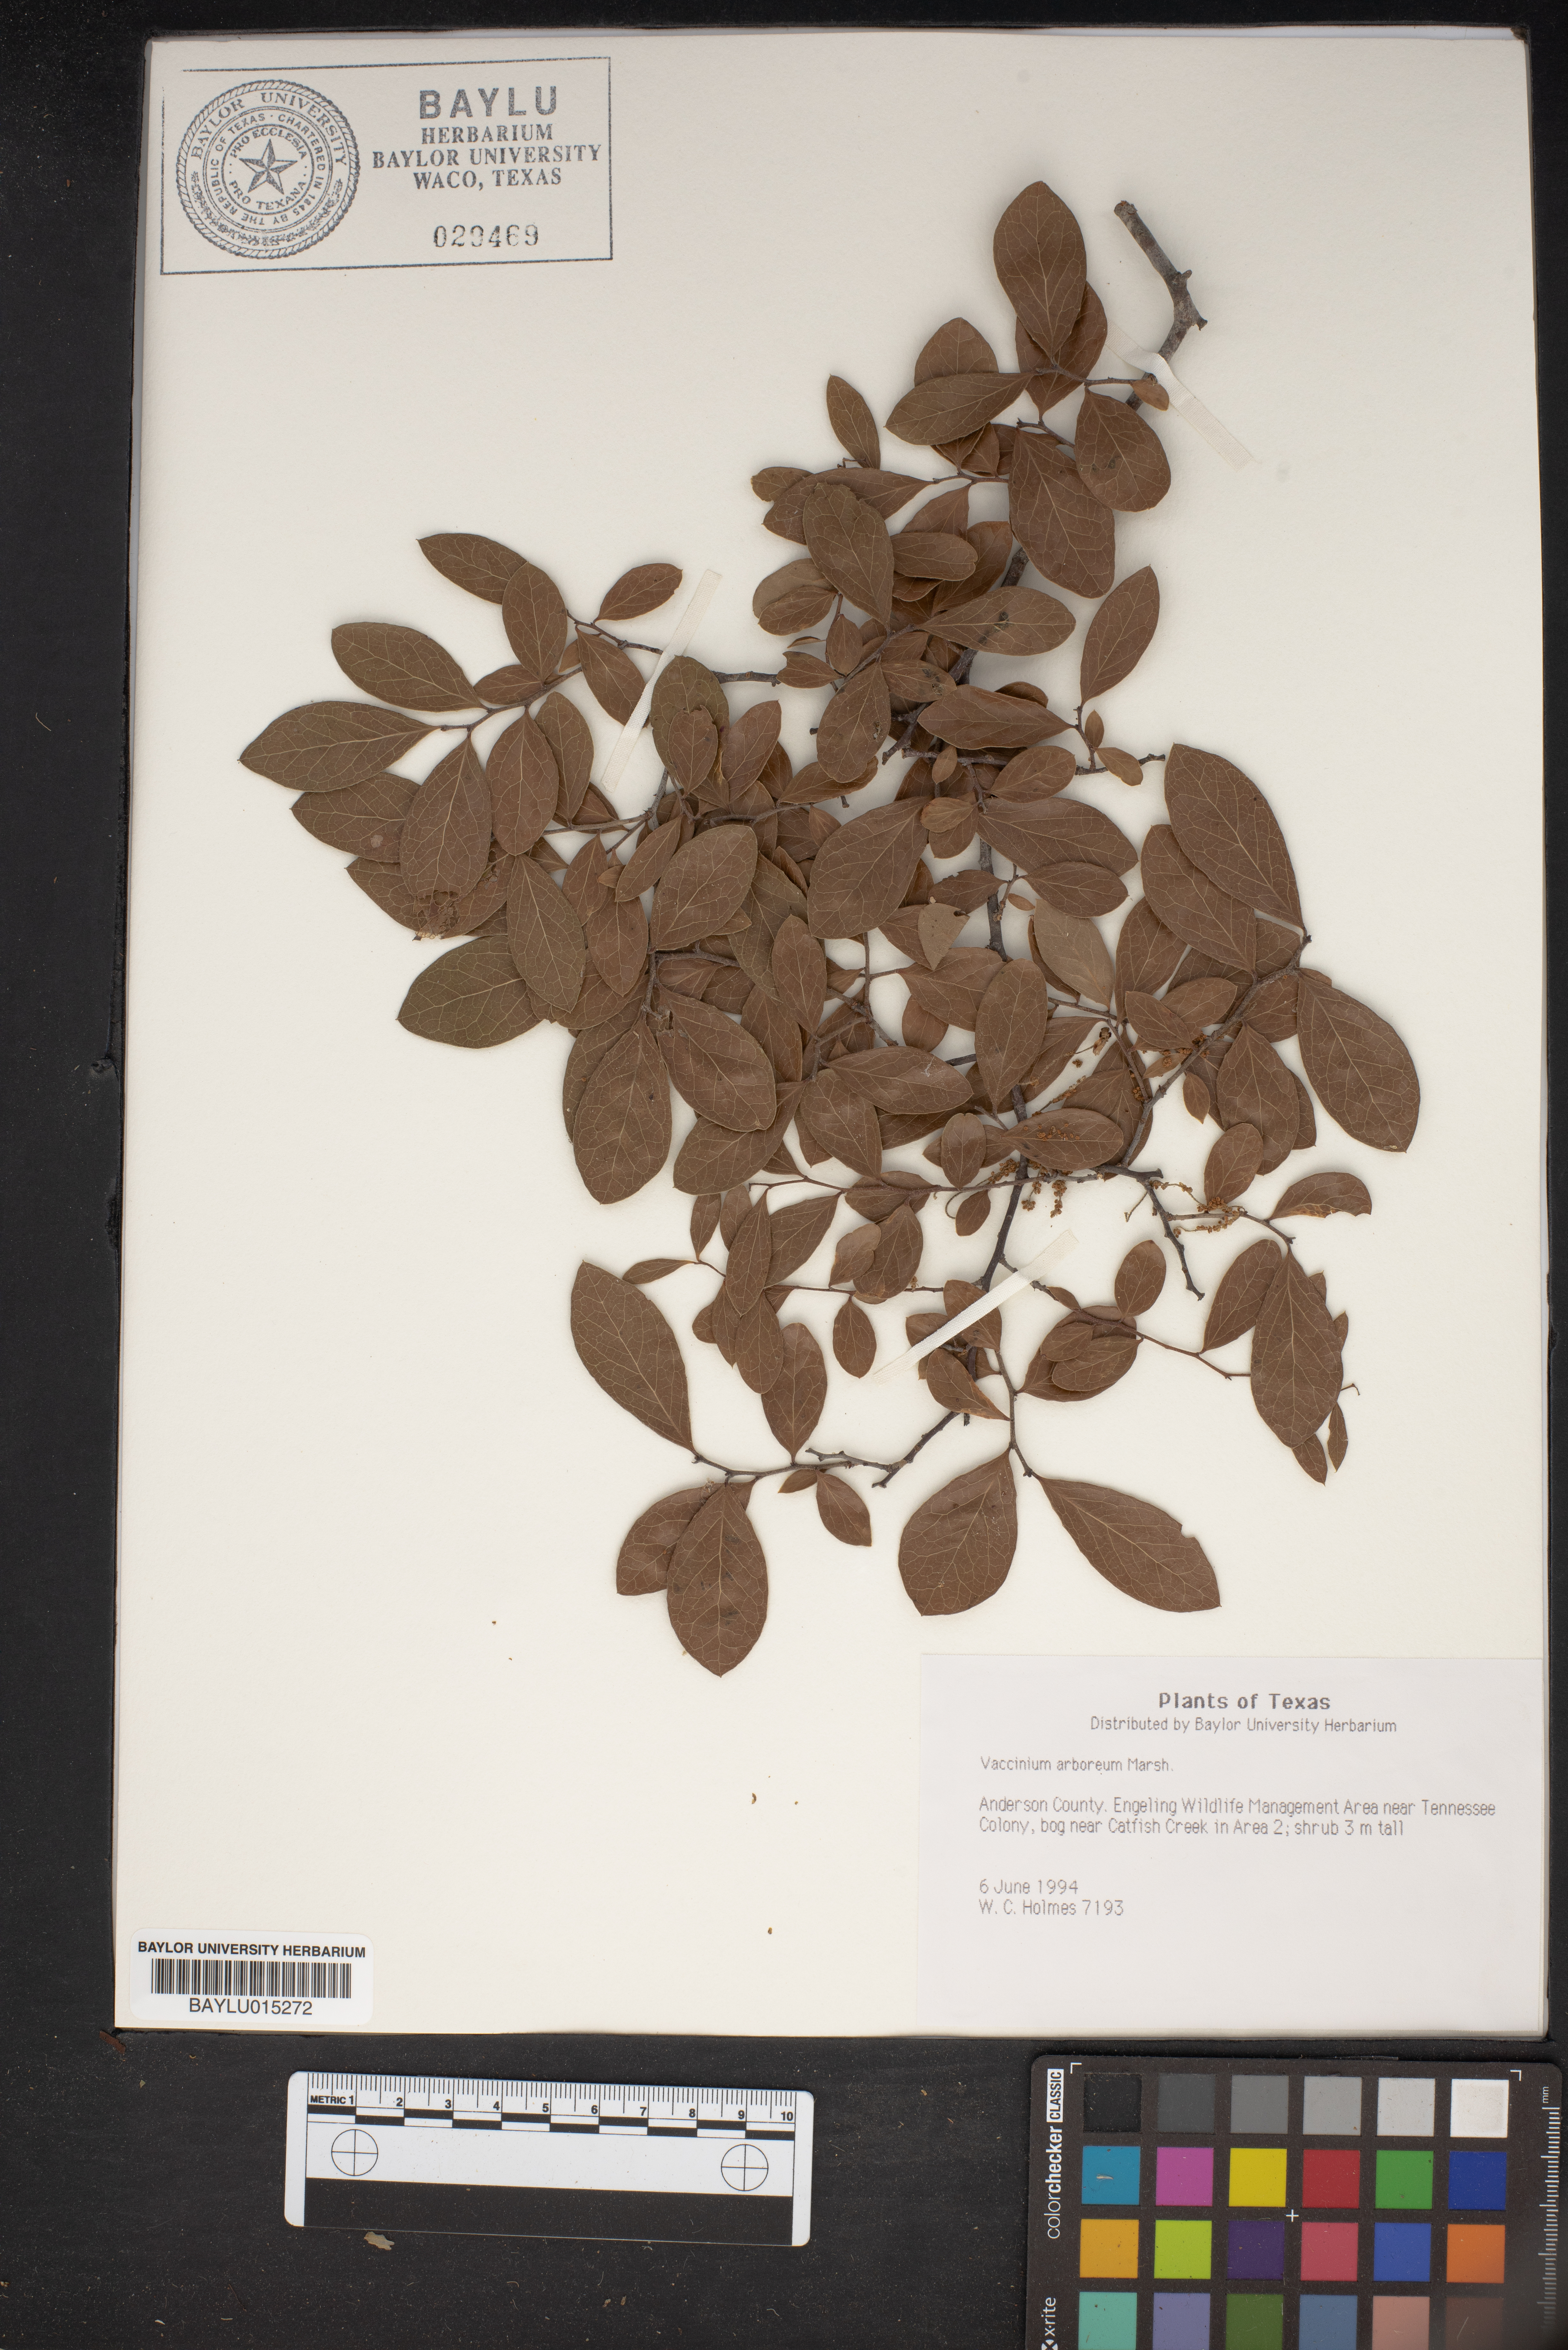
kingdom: Plantae
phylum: Tracheophyta
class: Magnoliopsida
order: Ericales
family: Ericaceae
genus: Vaccinium
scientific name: Vaccinium arboreum
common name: Farkleberry
